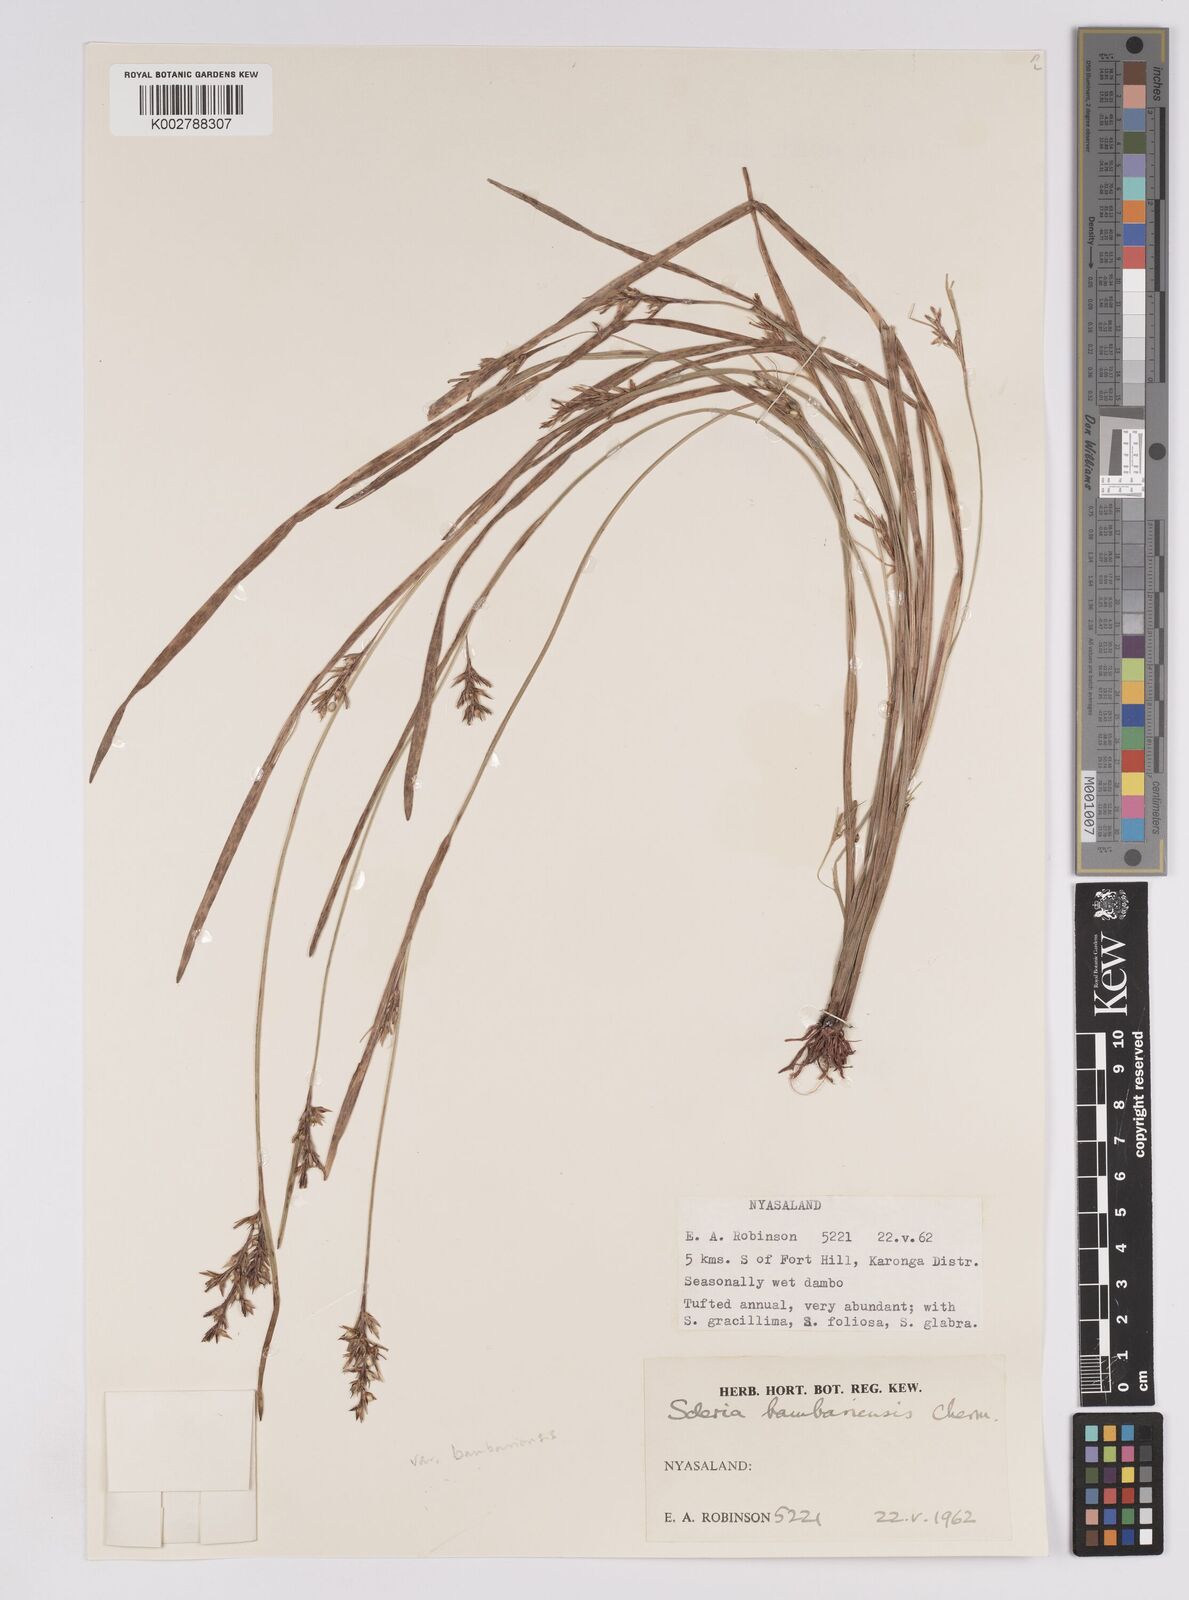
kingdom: Plantae
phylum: Tracheophyta
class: Liliopsida
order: Poales
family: Cyperaceae
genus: Scleria
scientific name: Scleria bambariensis
